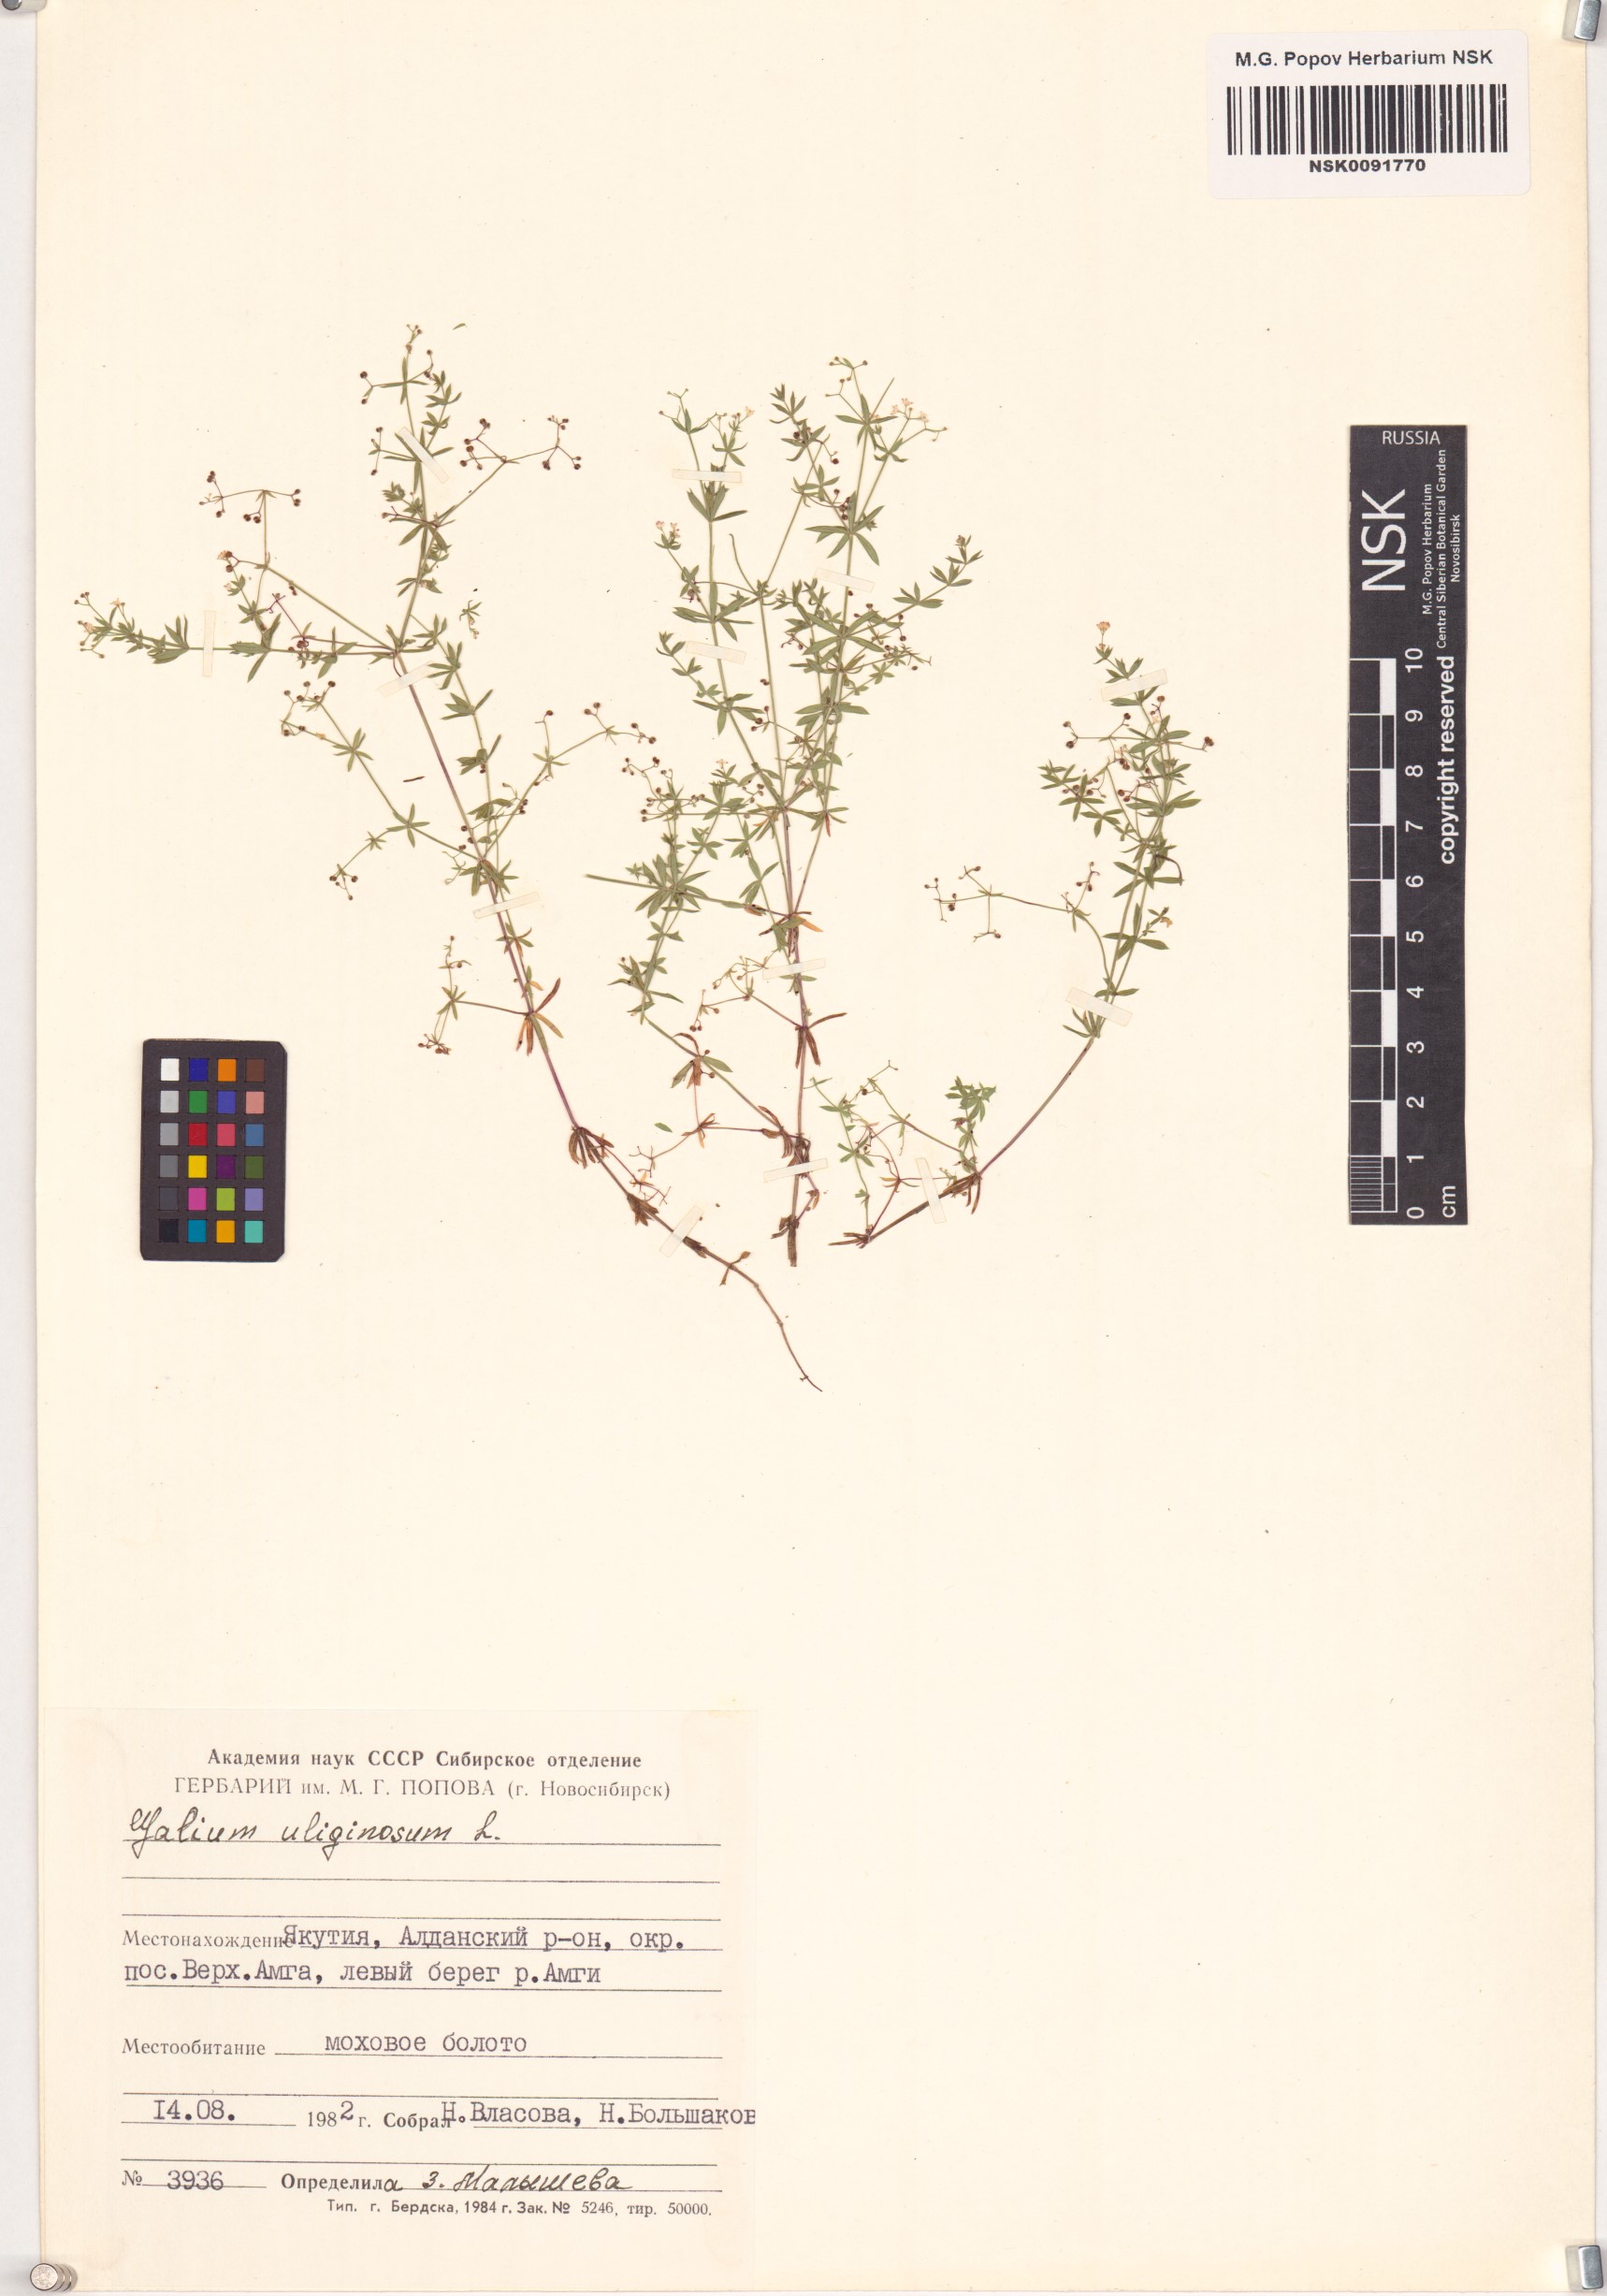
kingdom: Plantae
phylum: Tracheophyta
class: Magnoliopsida
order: Gentianales
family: Rubiaceae
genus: Galium
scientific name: Galium uliginosum
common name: Fen bedstraw
